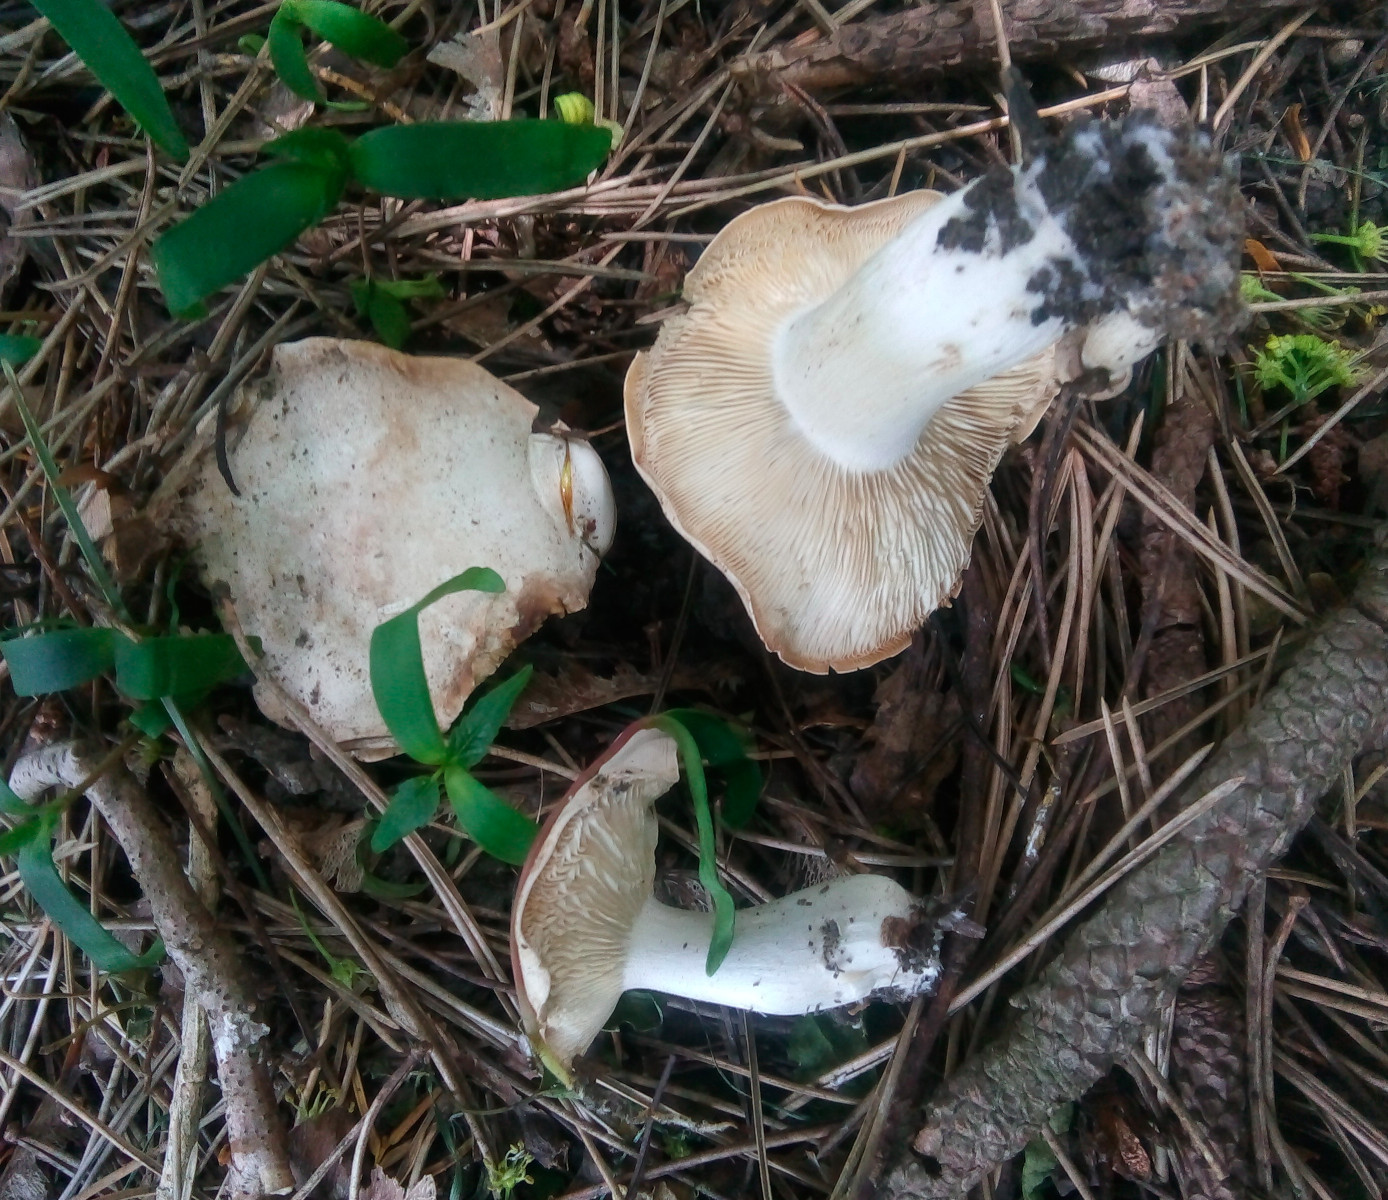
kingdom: Fungi
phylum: Basidiomycota
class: Agaricomycetes
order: Agaricales
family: Lyophyllaceae
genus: Calocybe
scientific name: Calocybe gambosa
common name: vårmusseron
